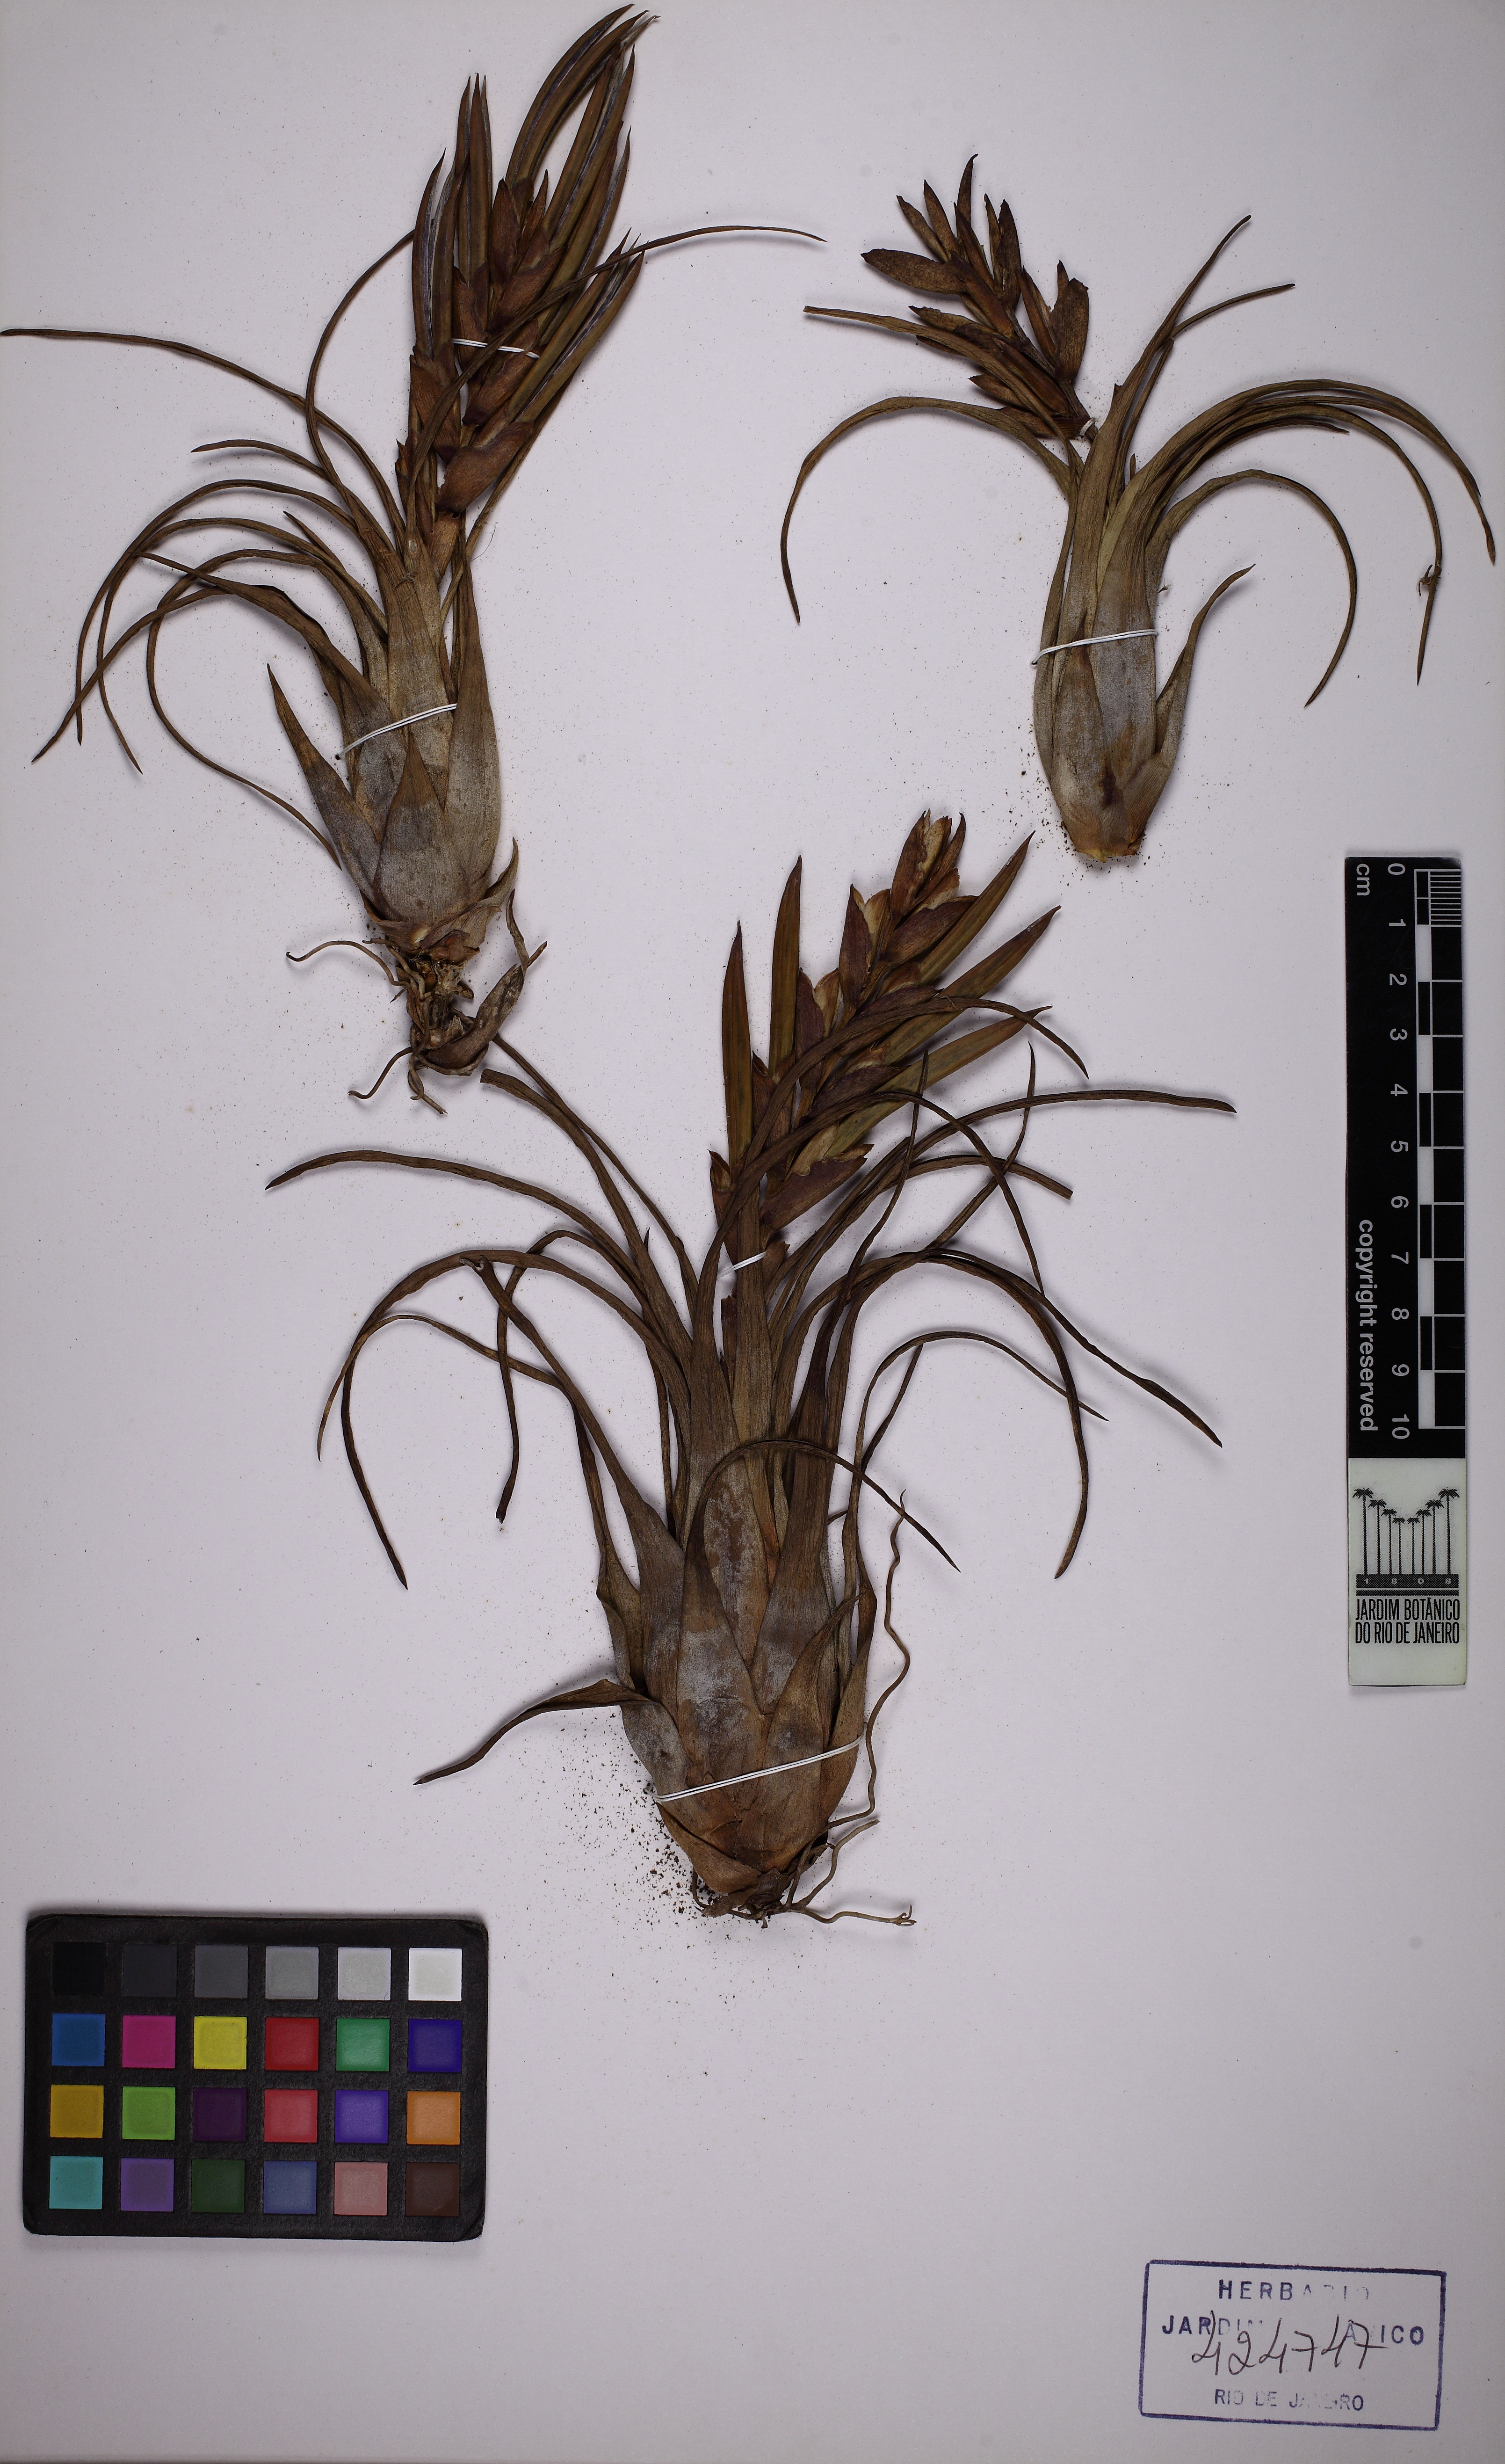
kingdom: Plantae
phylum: Tracheophyta
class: Liliopsida
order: Poales
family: Bromeliaceae
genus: Tillandsia
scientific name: Tillandsia paraensis
